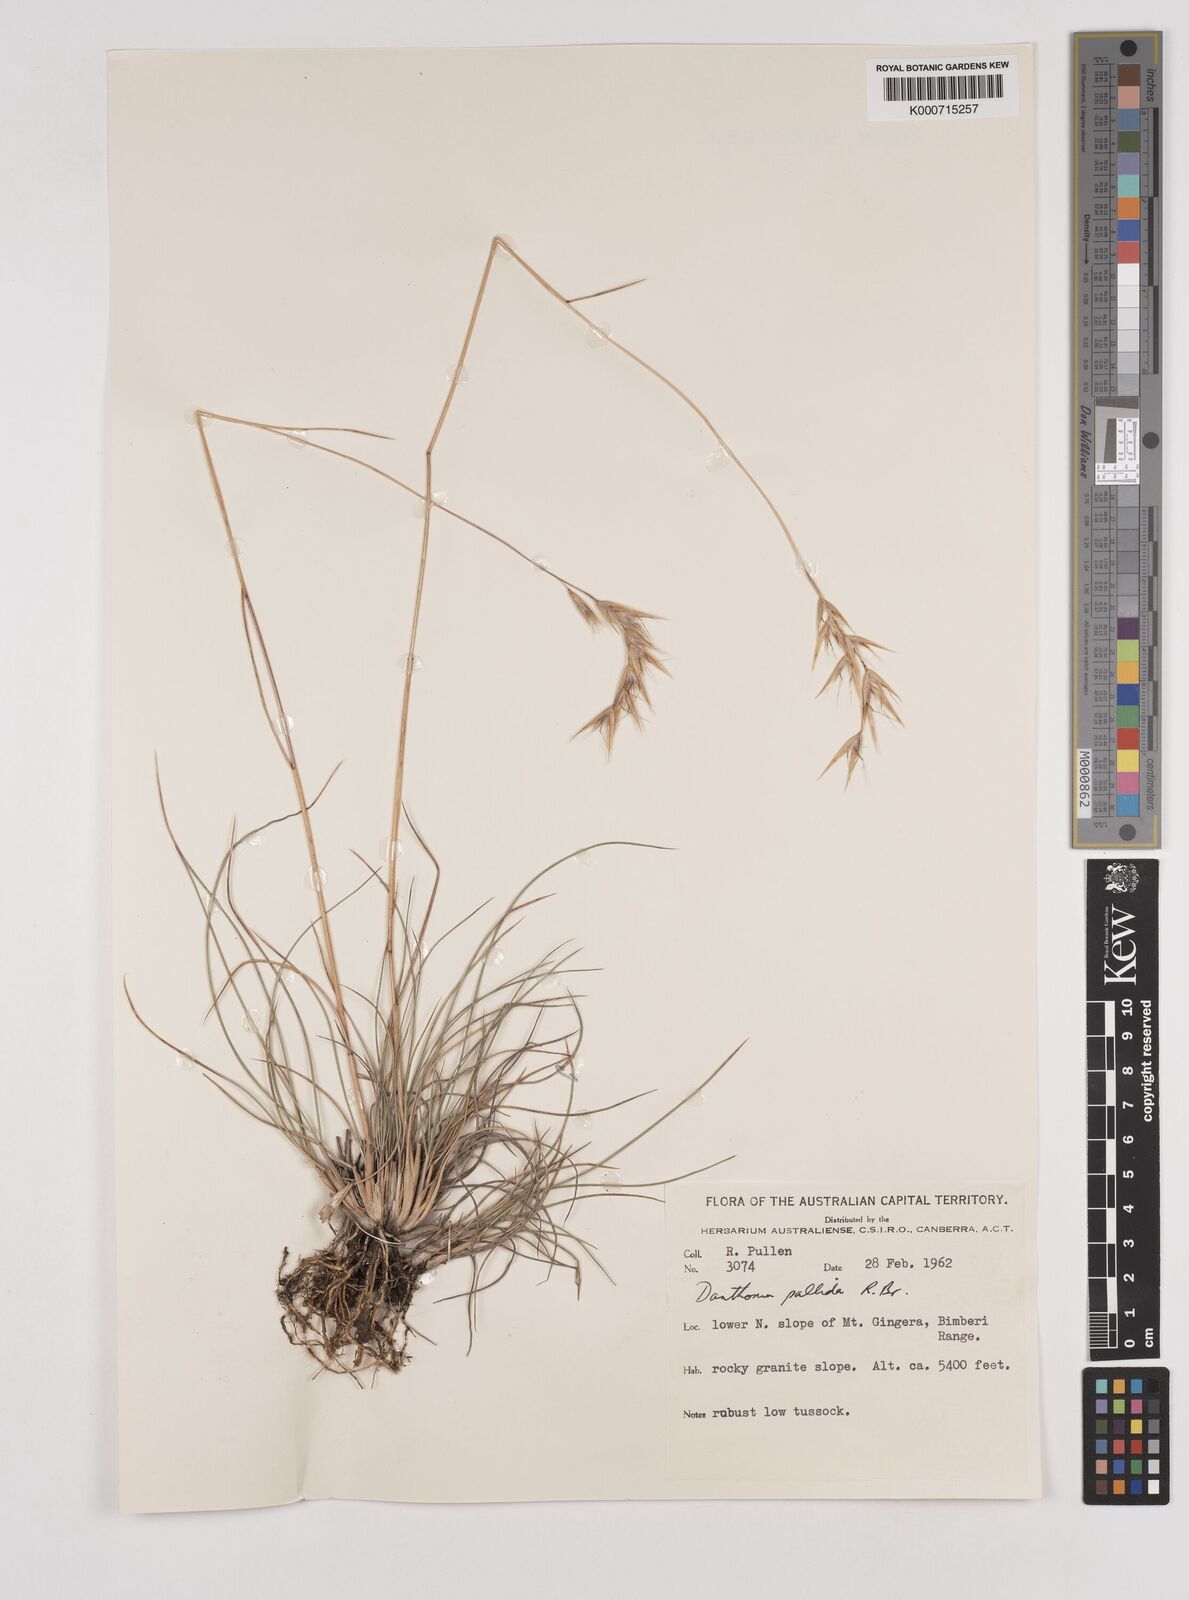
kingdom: Plantae
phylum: Tracheophyta
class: Liliopsida
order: Poales
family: Poaceae
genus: Rytidosperma
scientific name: Rytidosperma
